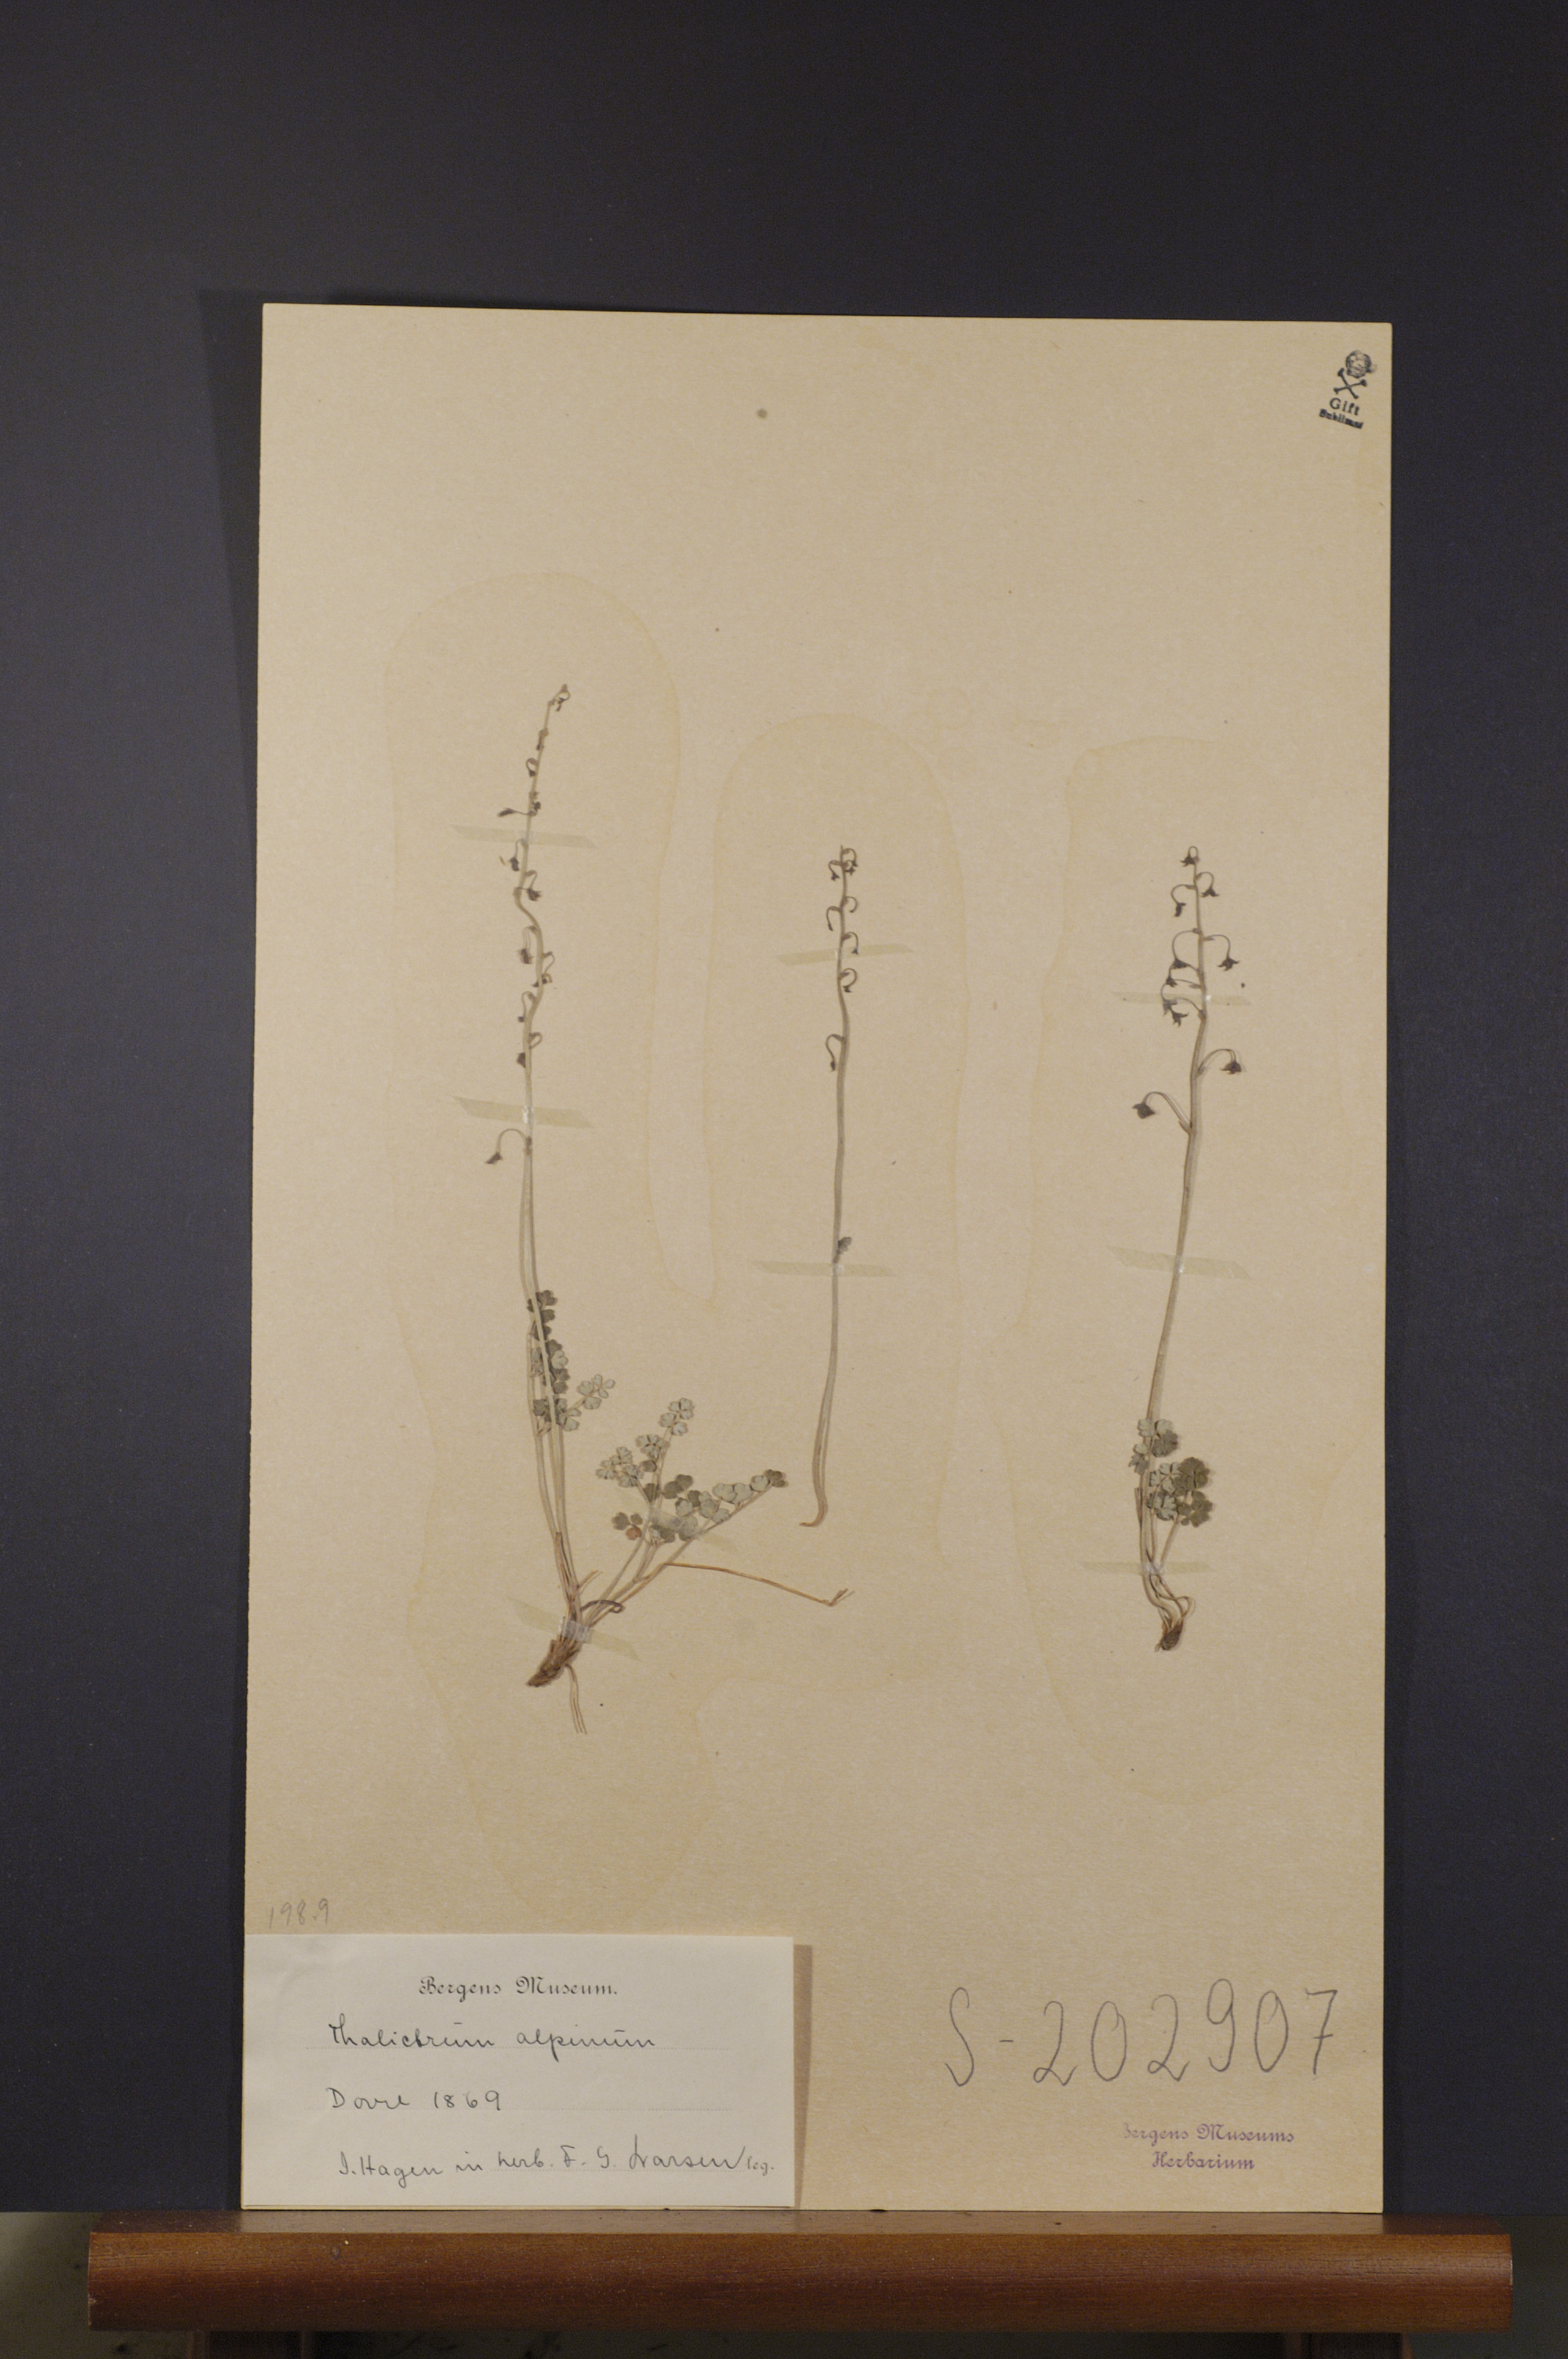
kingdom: Plantae
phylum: Tracheophyta
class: Magnoliopsida
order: Ranunculales
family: Ranunculaceae
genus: Thalictrum
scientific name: Thalictrum alpinum
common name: Alpine meadow-rue
